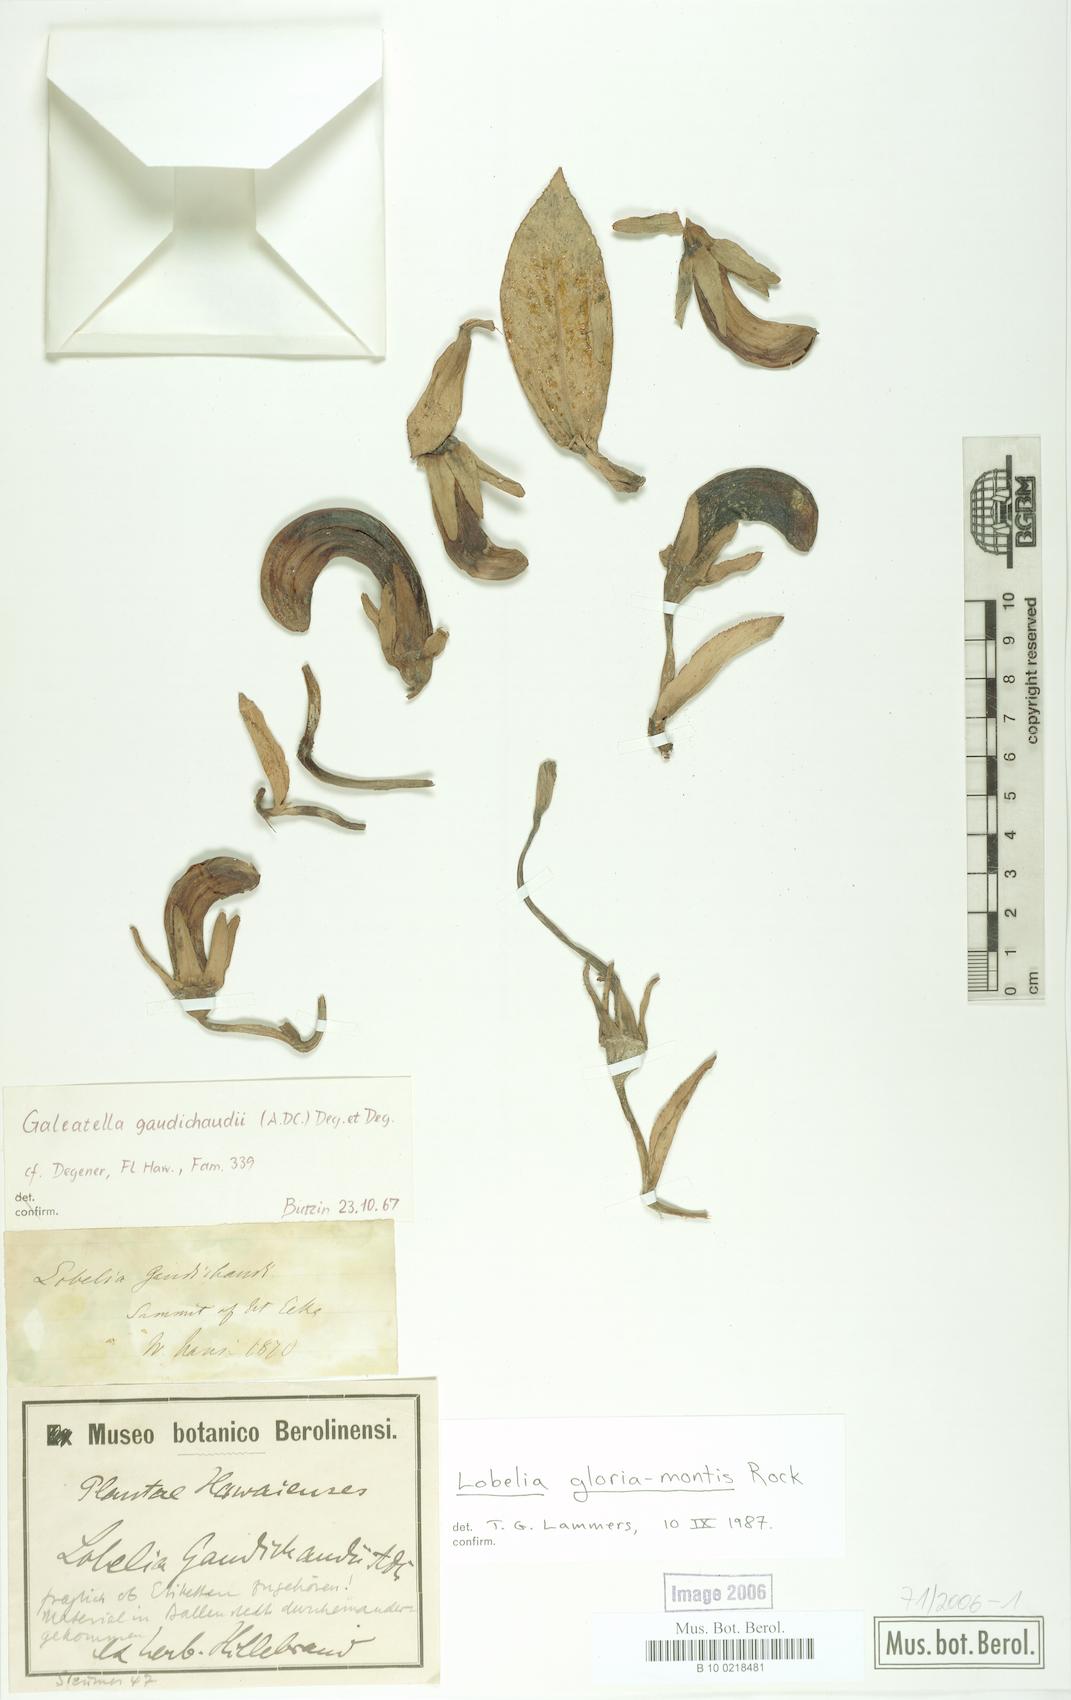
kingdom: Plantae
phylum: Tracheophyta
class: Magnoliopsida
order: Asterales
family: Campanulaceae
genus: Lobelia
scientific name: Lobelia gloria-montis
